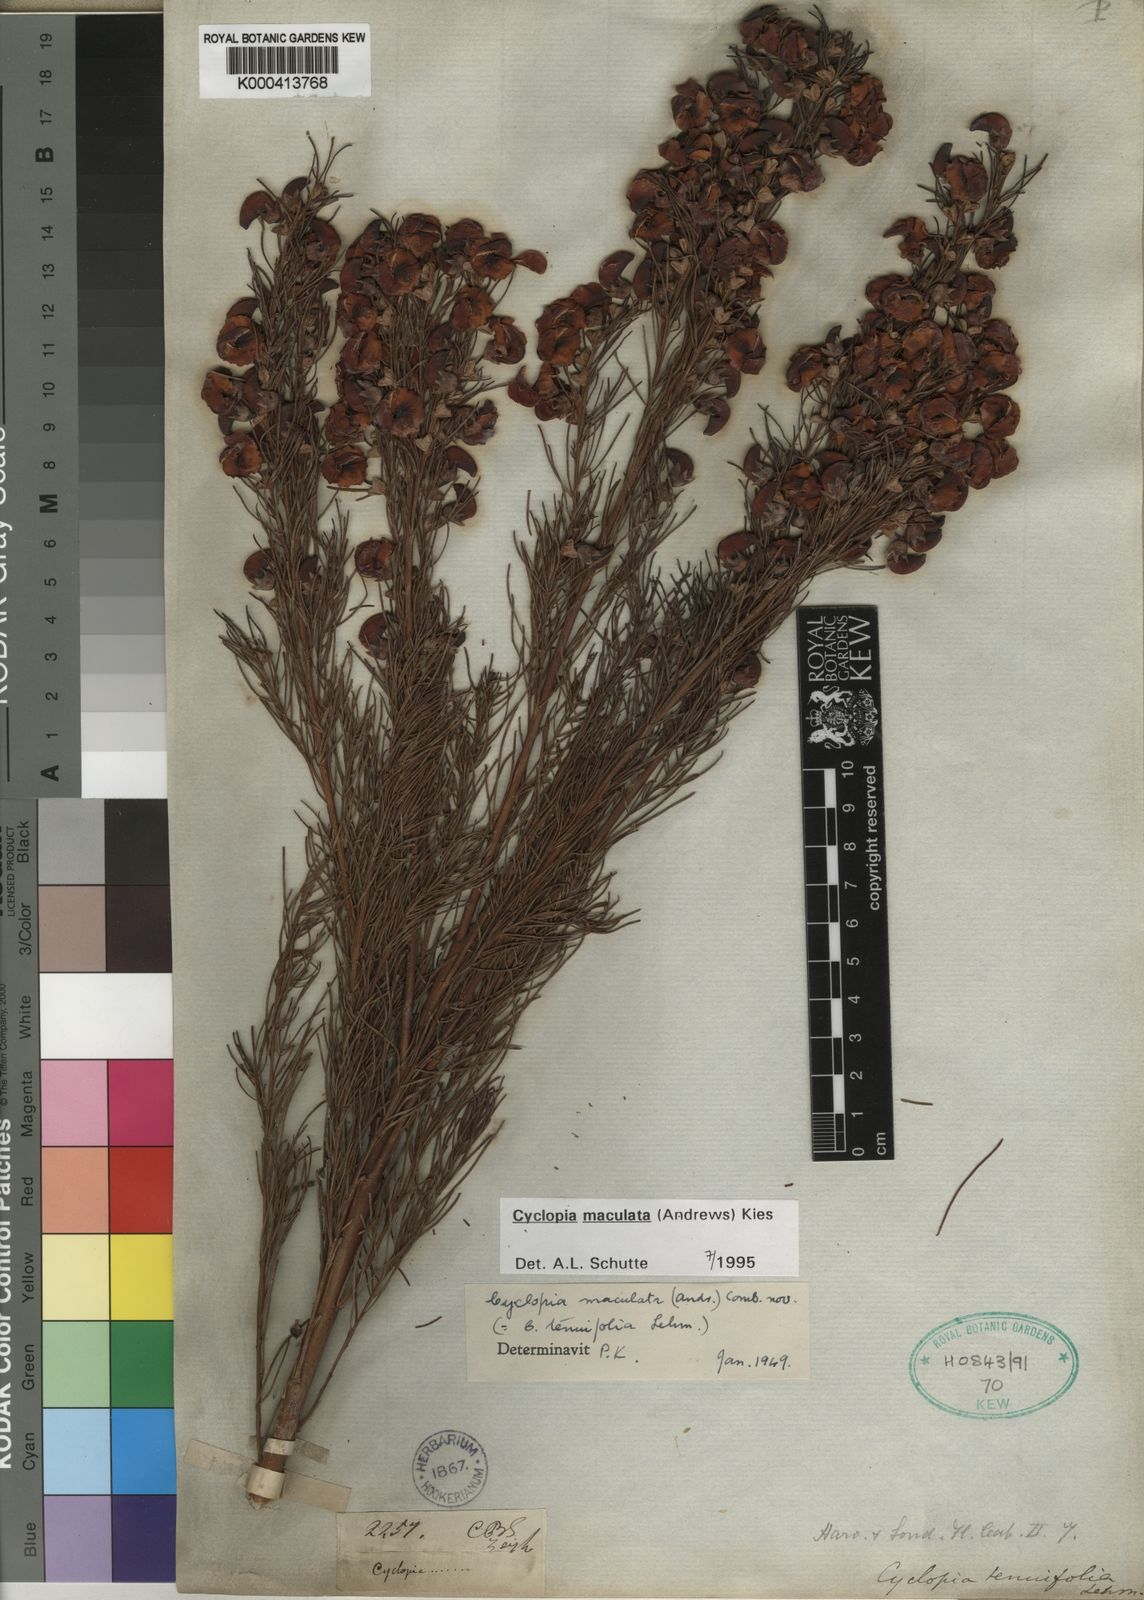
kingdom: Plantae
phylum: Tracheophyta
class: Magnoliopsida
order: Fabales
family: Fabaceae
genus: Cyclopia
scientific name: Cyclopia maculata
